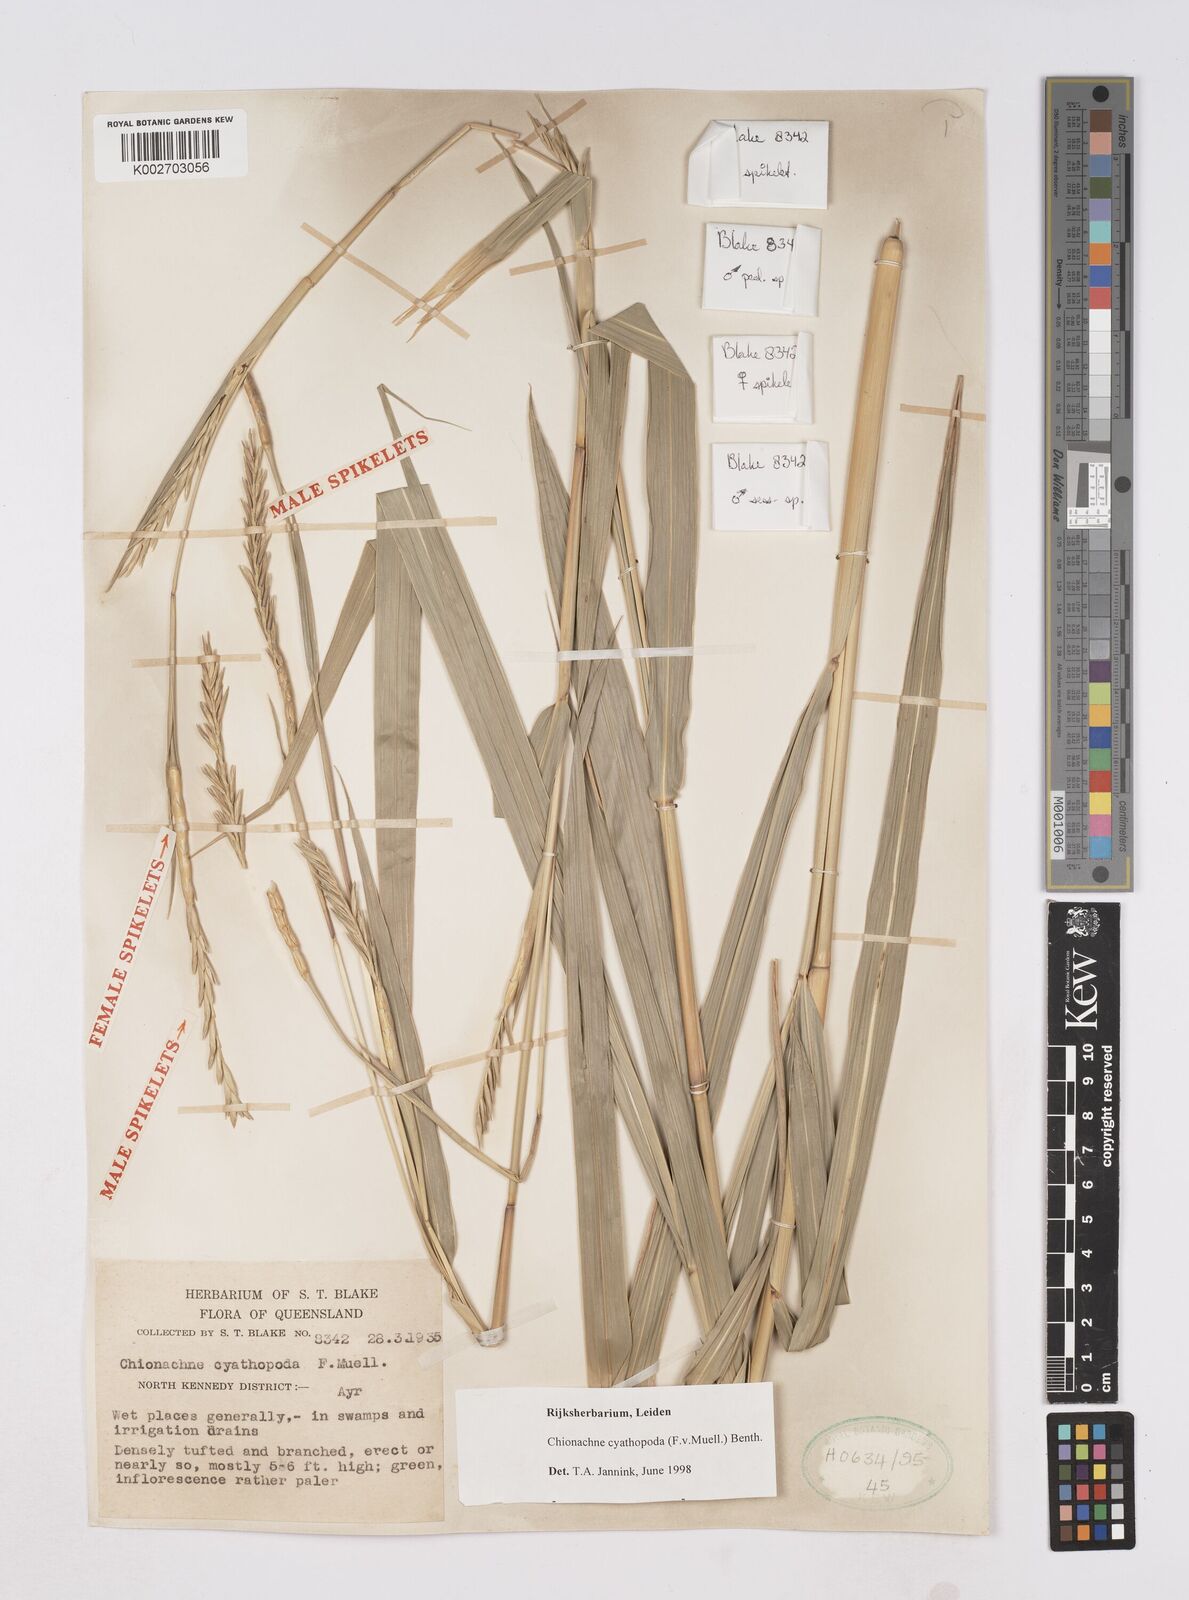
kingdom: Plantae
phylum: Tracheophyta
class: Liliopsida
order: Poales
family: Poaceae
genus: Polytoca
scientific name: Polytoca cyathopoda
